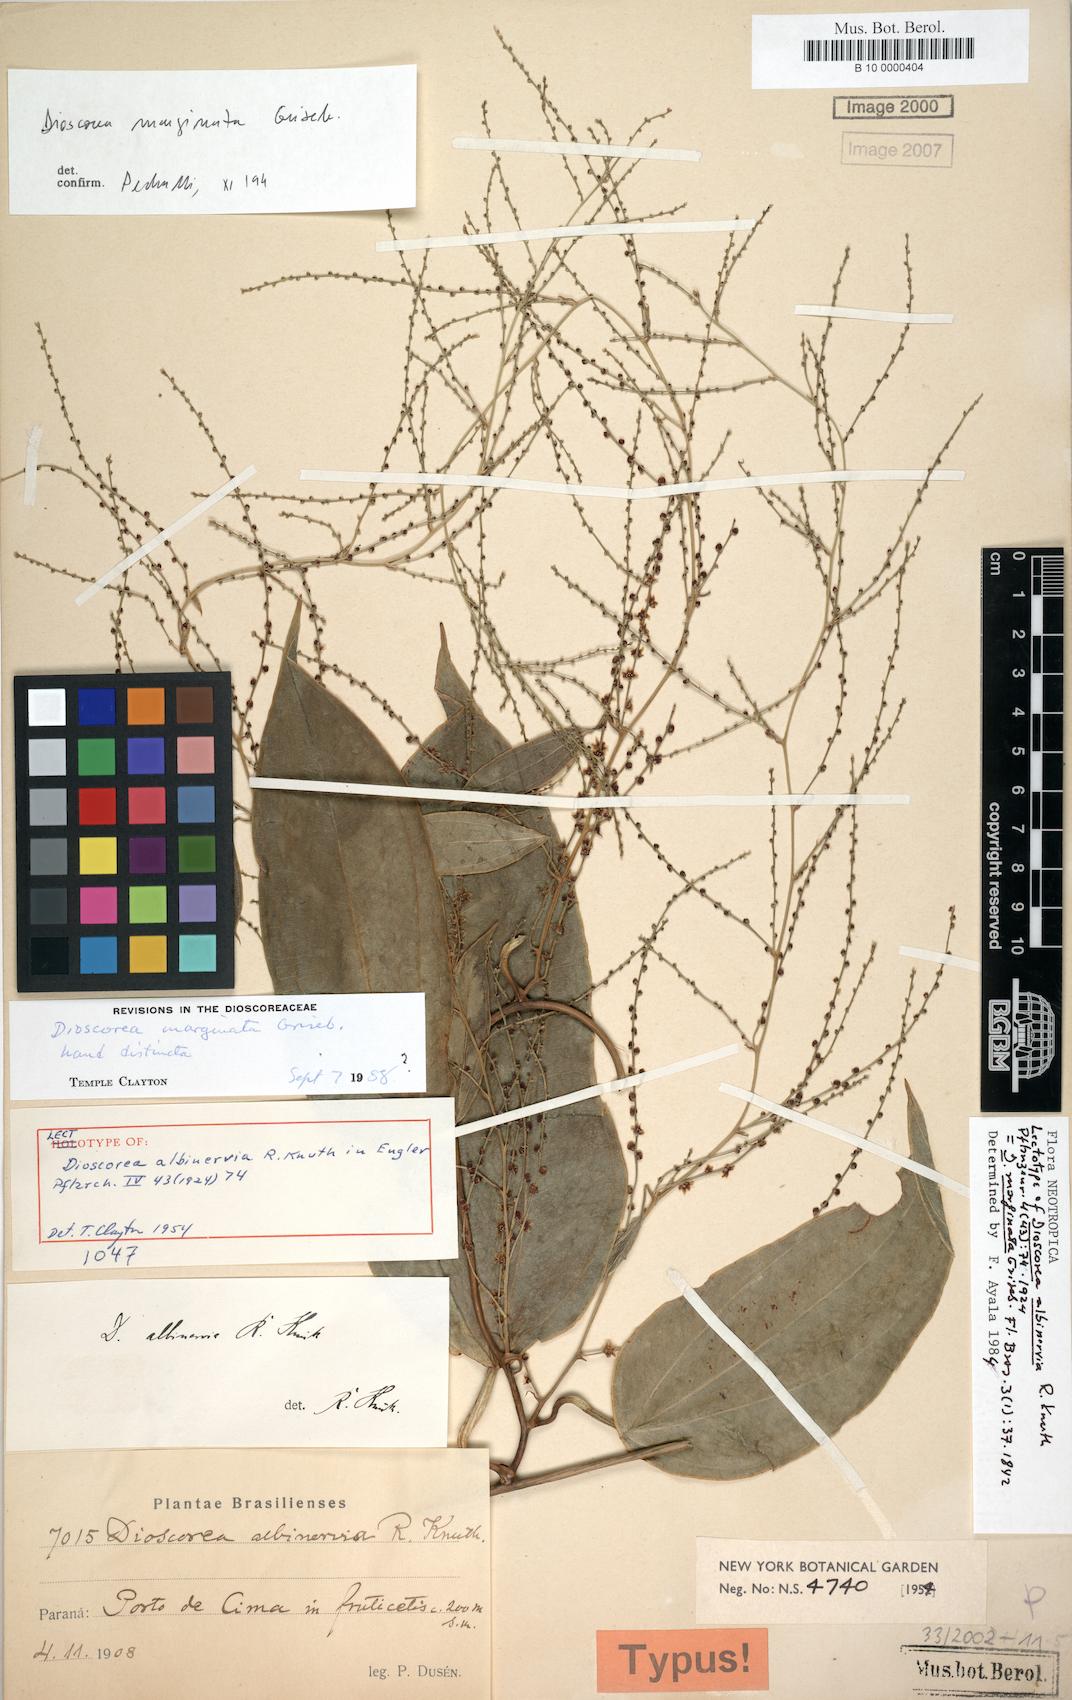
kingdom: Plantae
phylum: Tracheophyta
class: Liliopsida
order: Dioscoreales
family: Dioscoreaceae
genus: Dioscorea
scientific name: Dioscorea marginata
